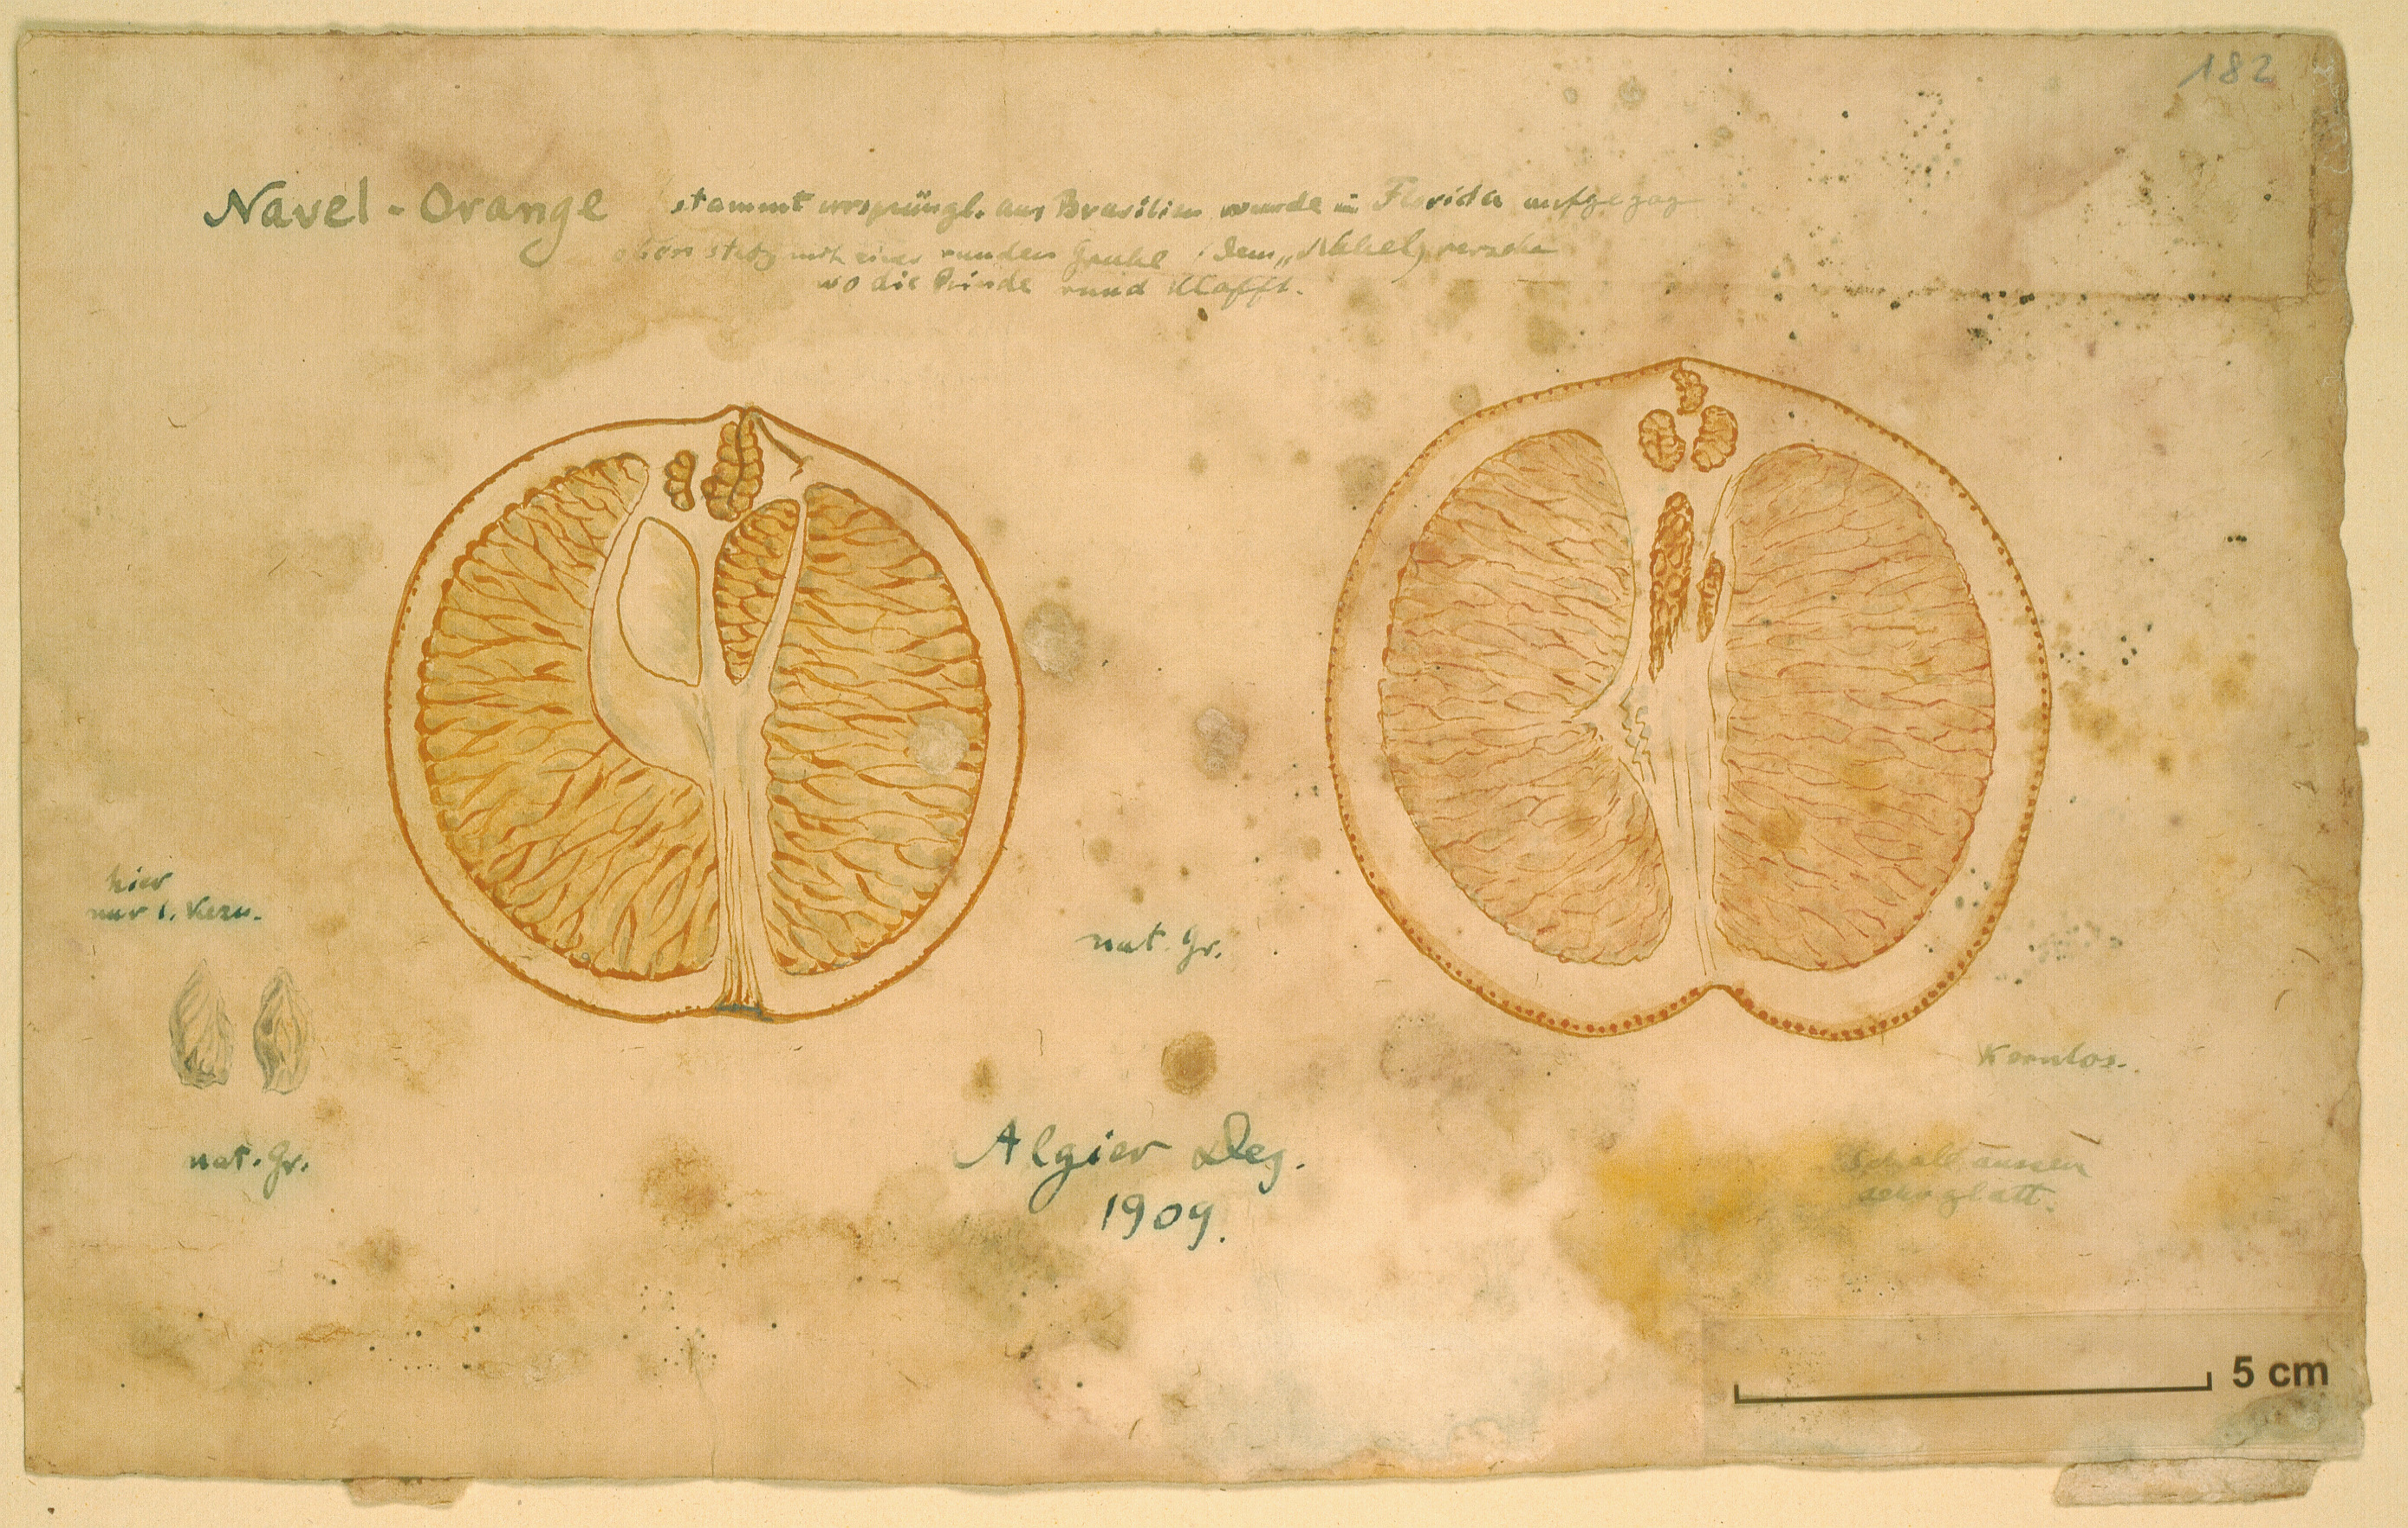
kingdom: Plantae
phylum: Tracheophyta
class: Magnoliopsida
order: Sapindales
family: Rutaceae
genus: Citrus
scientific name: Citrus aurantium
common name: Sour orange
